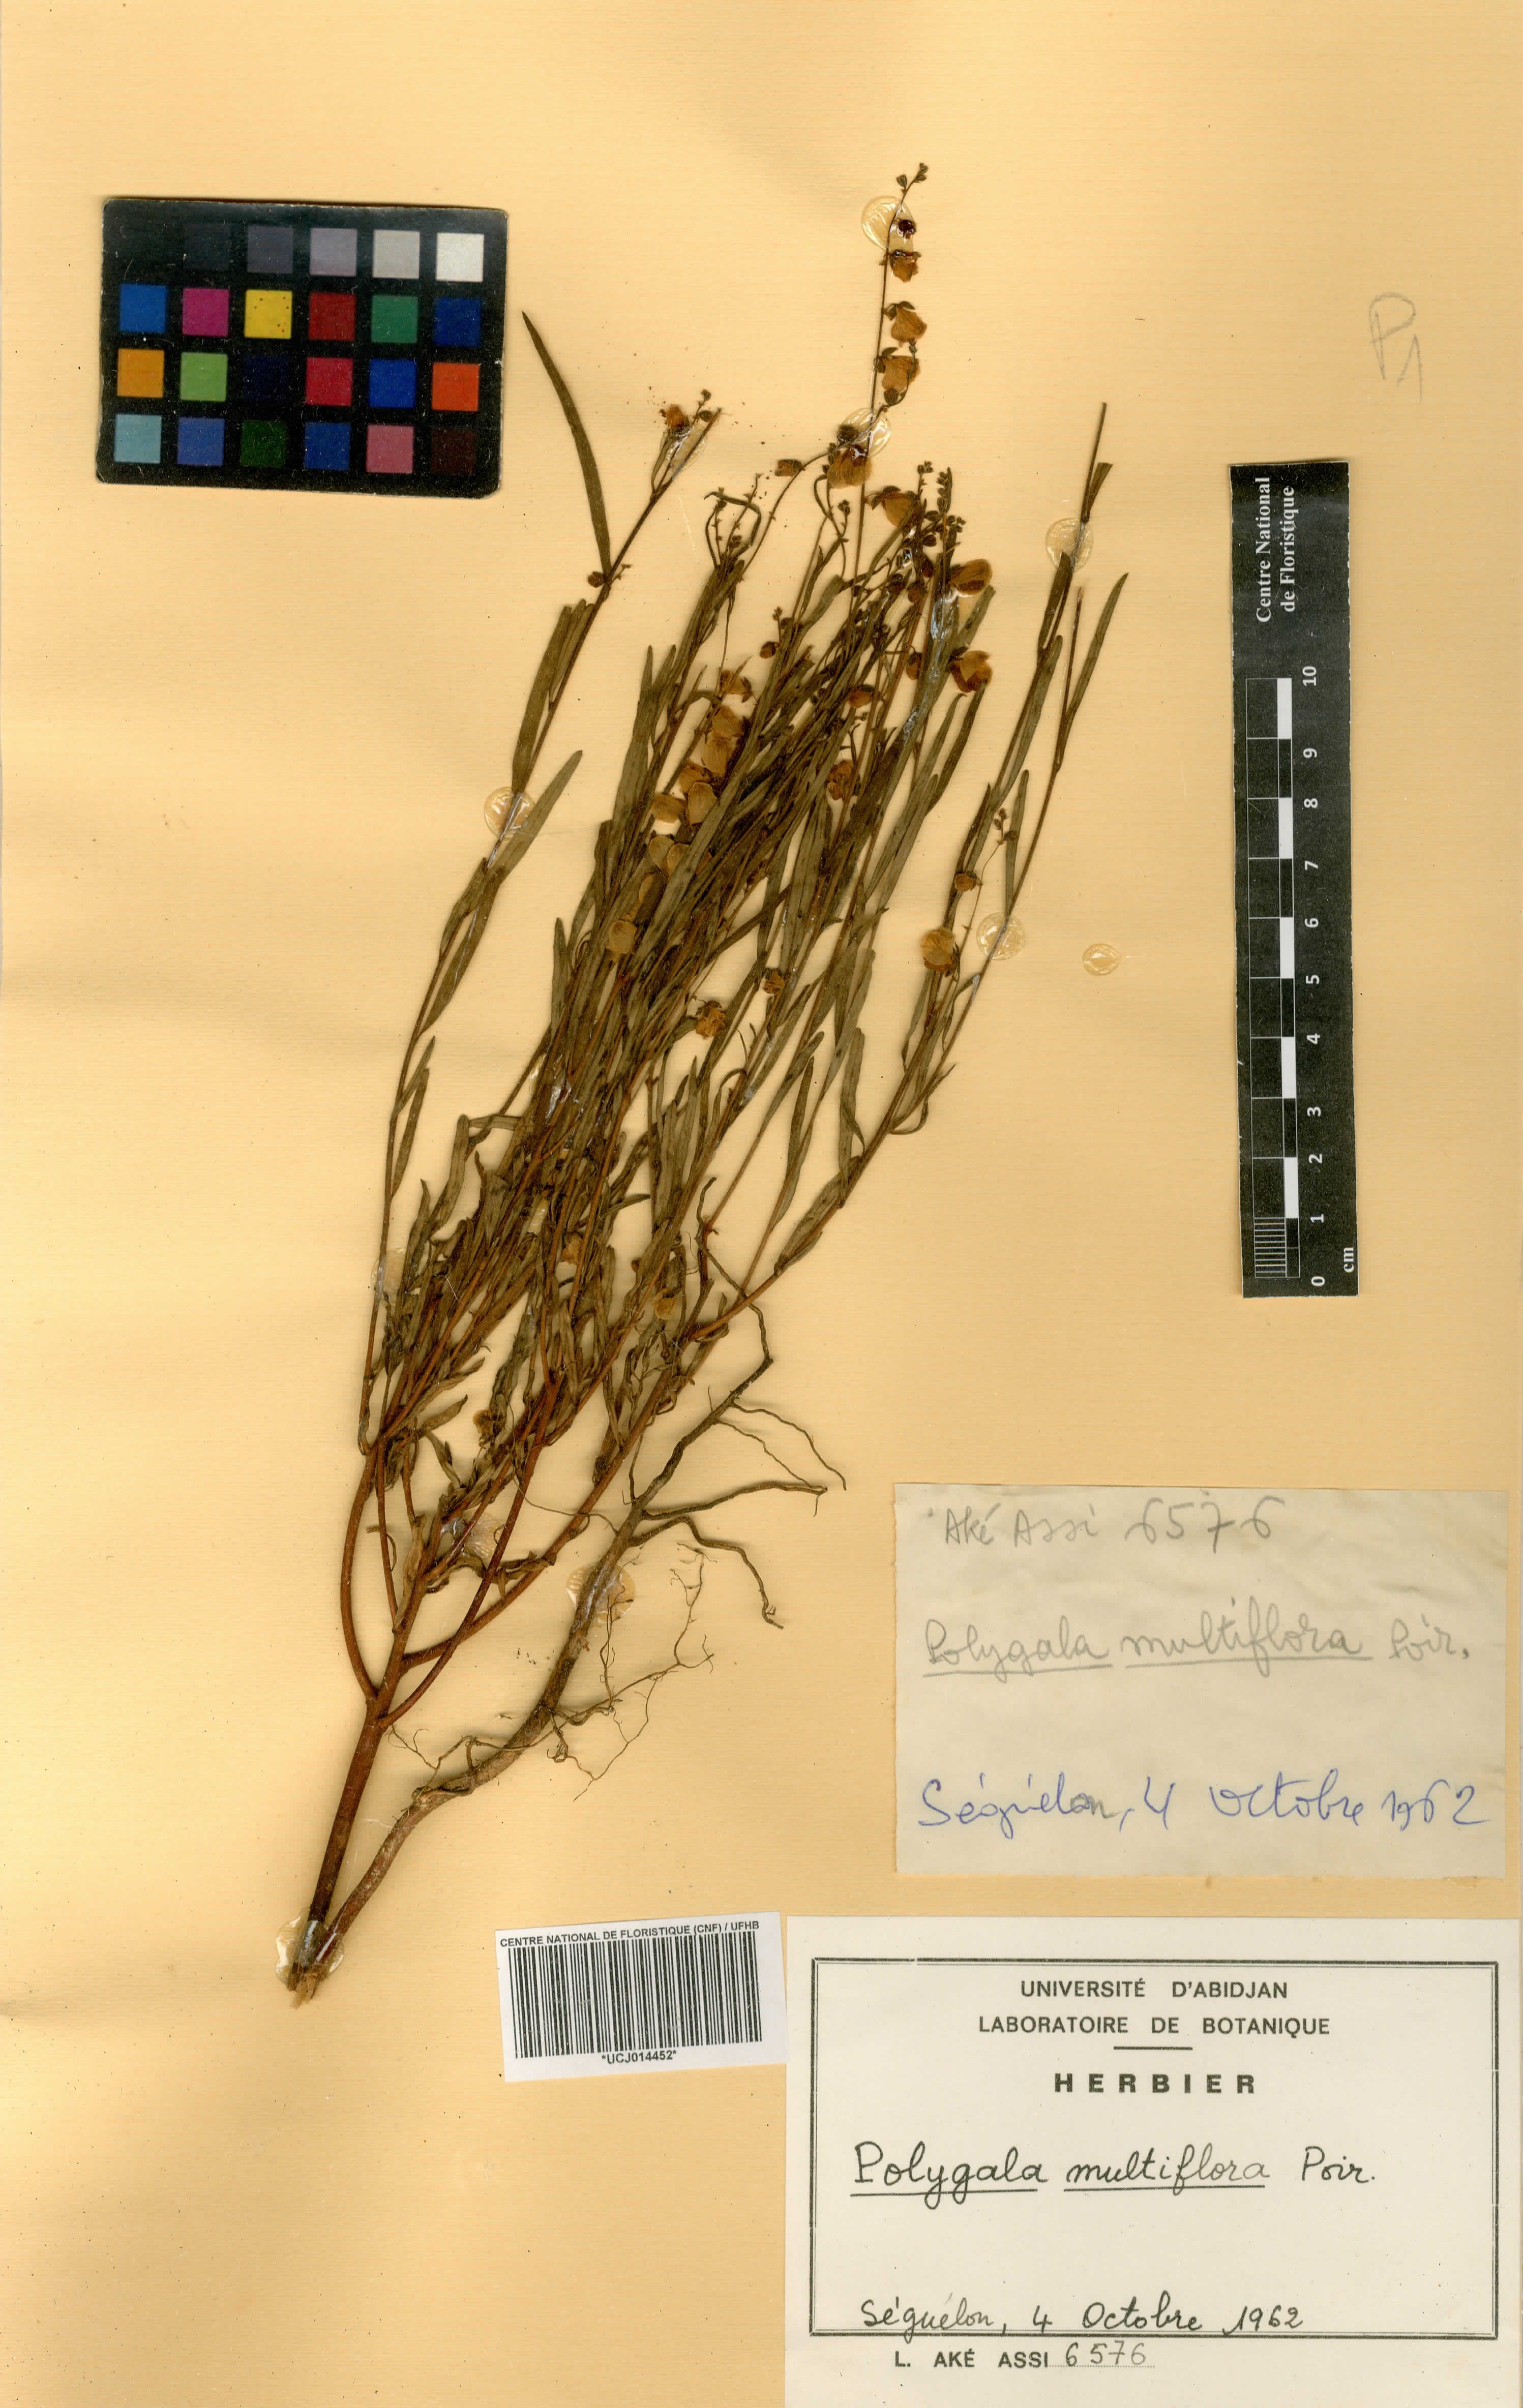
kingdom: Plantae
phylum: Tracheophyta
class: Magnoliopsida
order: Fabales
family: Polygalaceae
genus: Polygala
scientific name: Polygala multiflora
